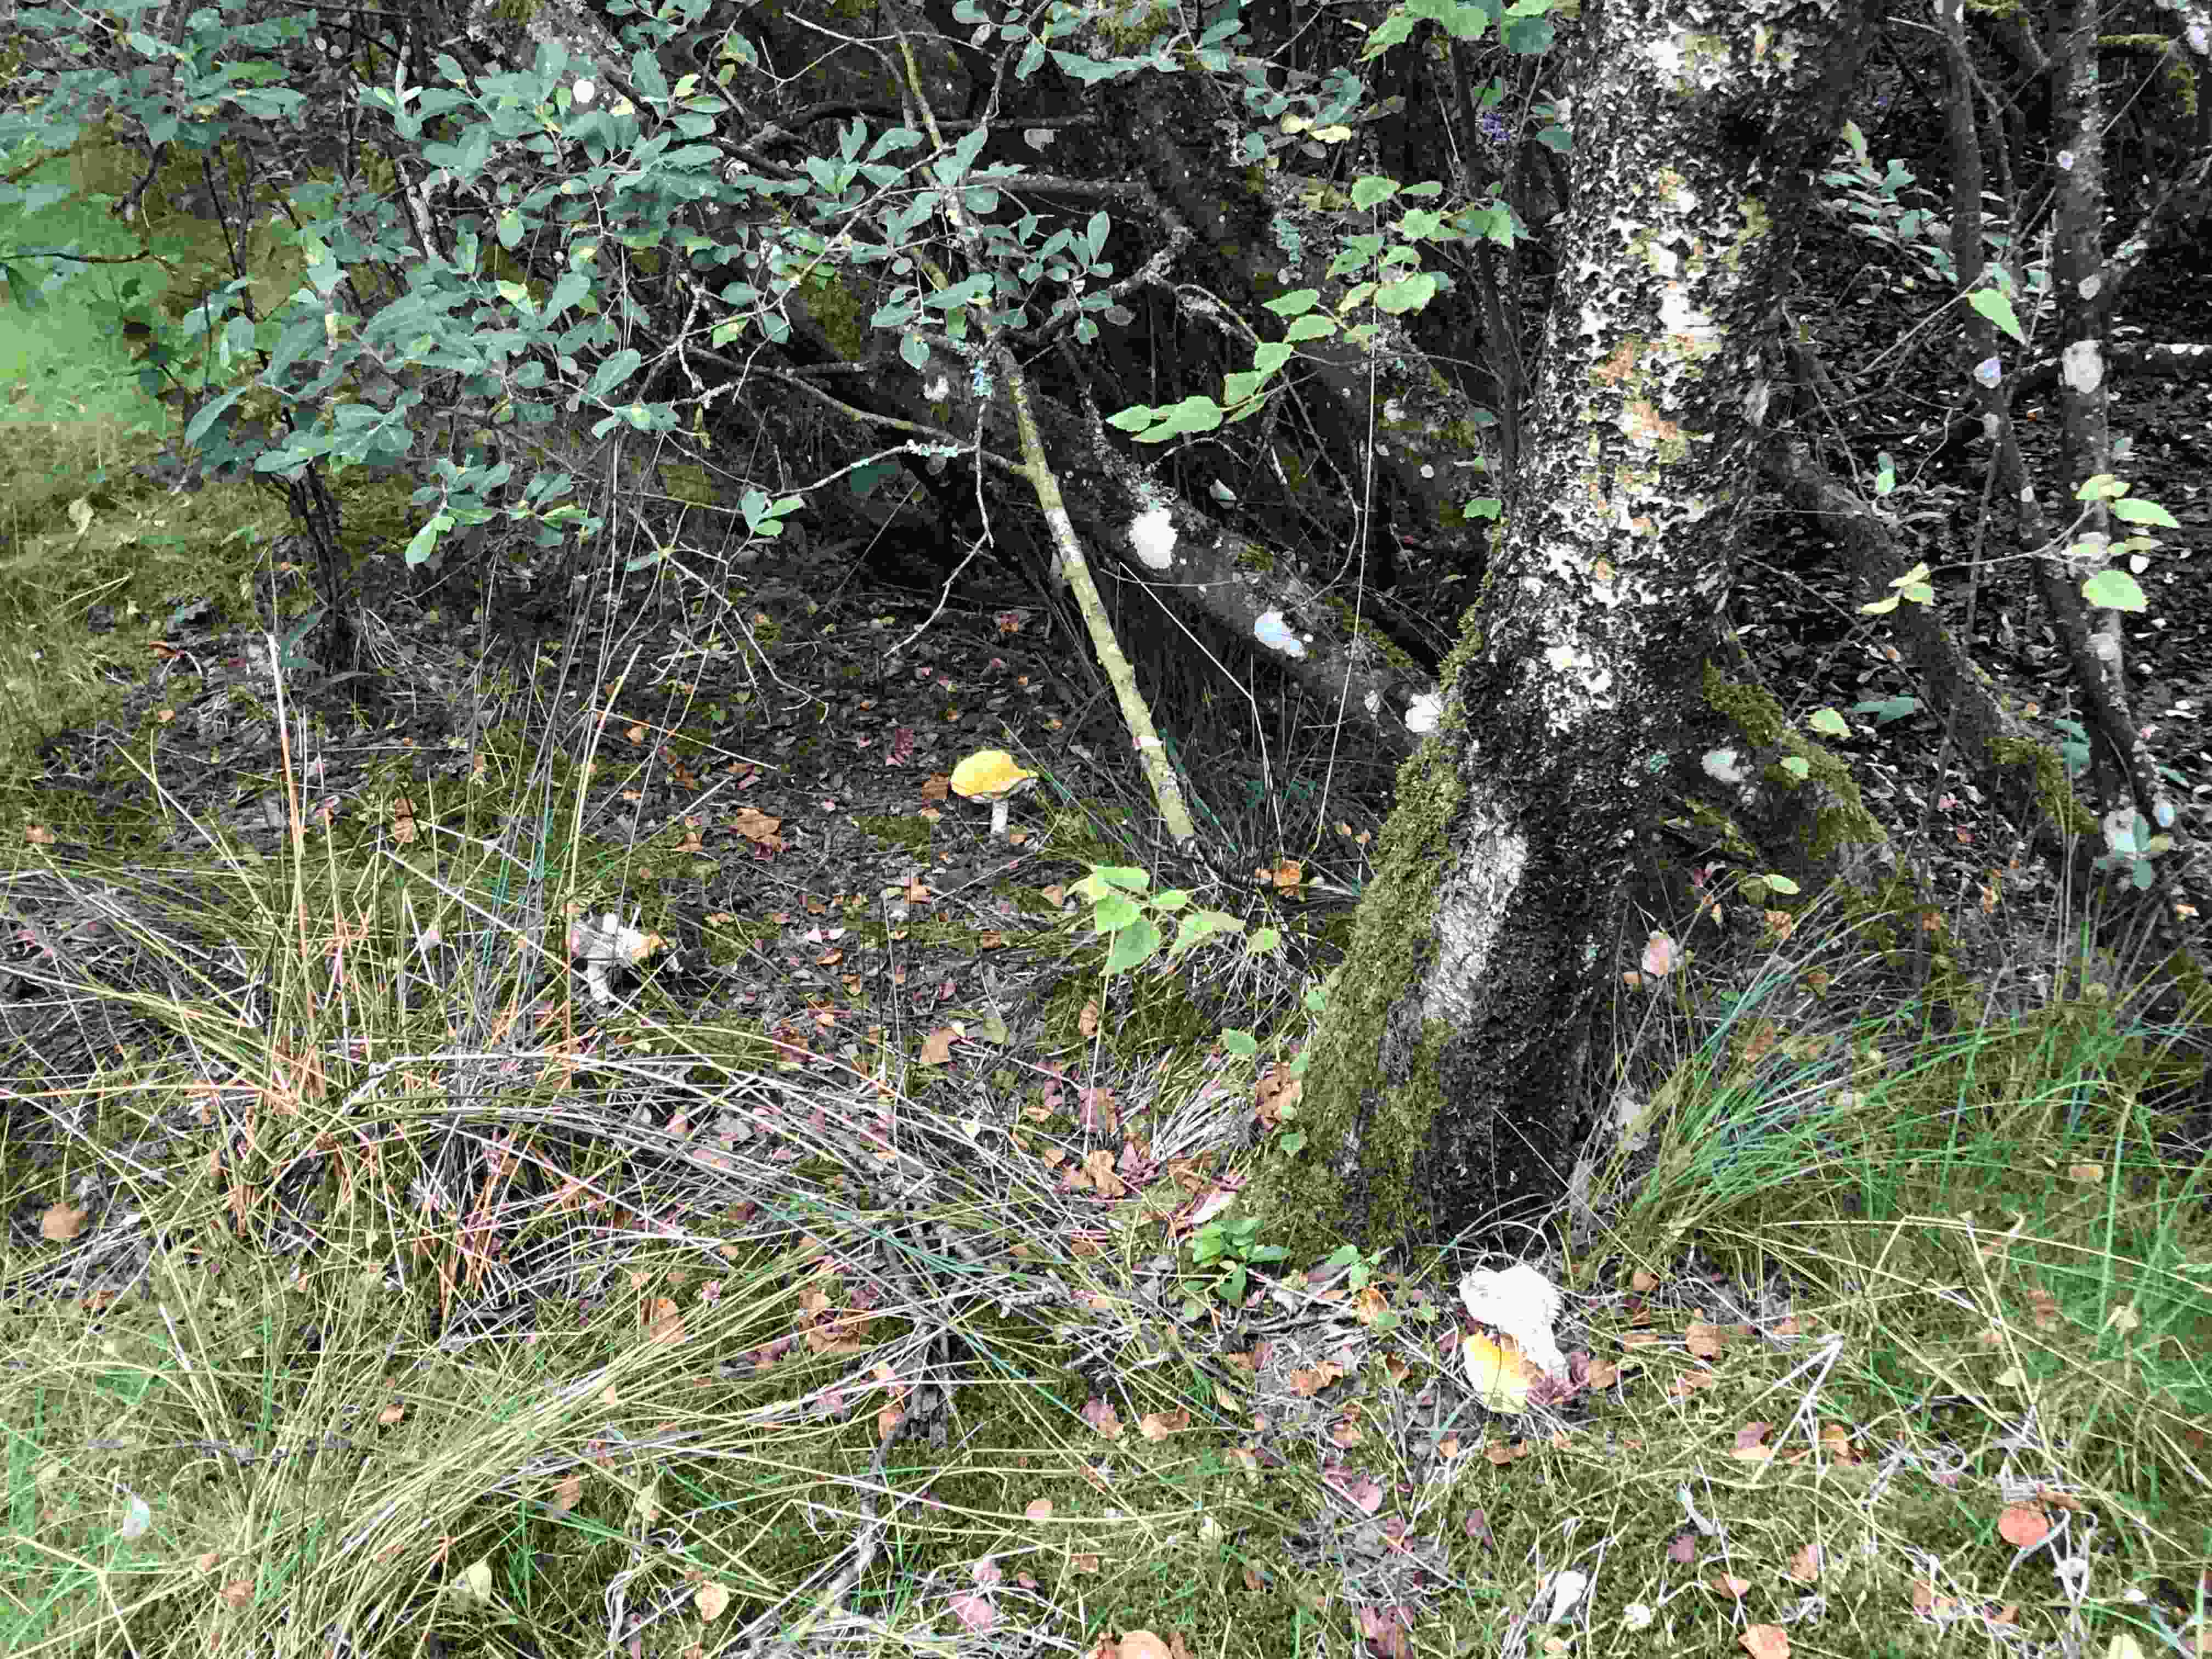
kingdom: Fungi
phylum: Basidiomycota
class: Agaricomycetes
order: Russulales
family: Russulaceae
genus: Russula
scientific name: Russula claroflava
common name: birke-skørhat
